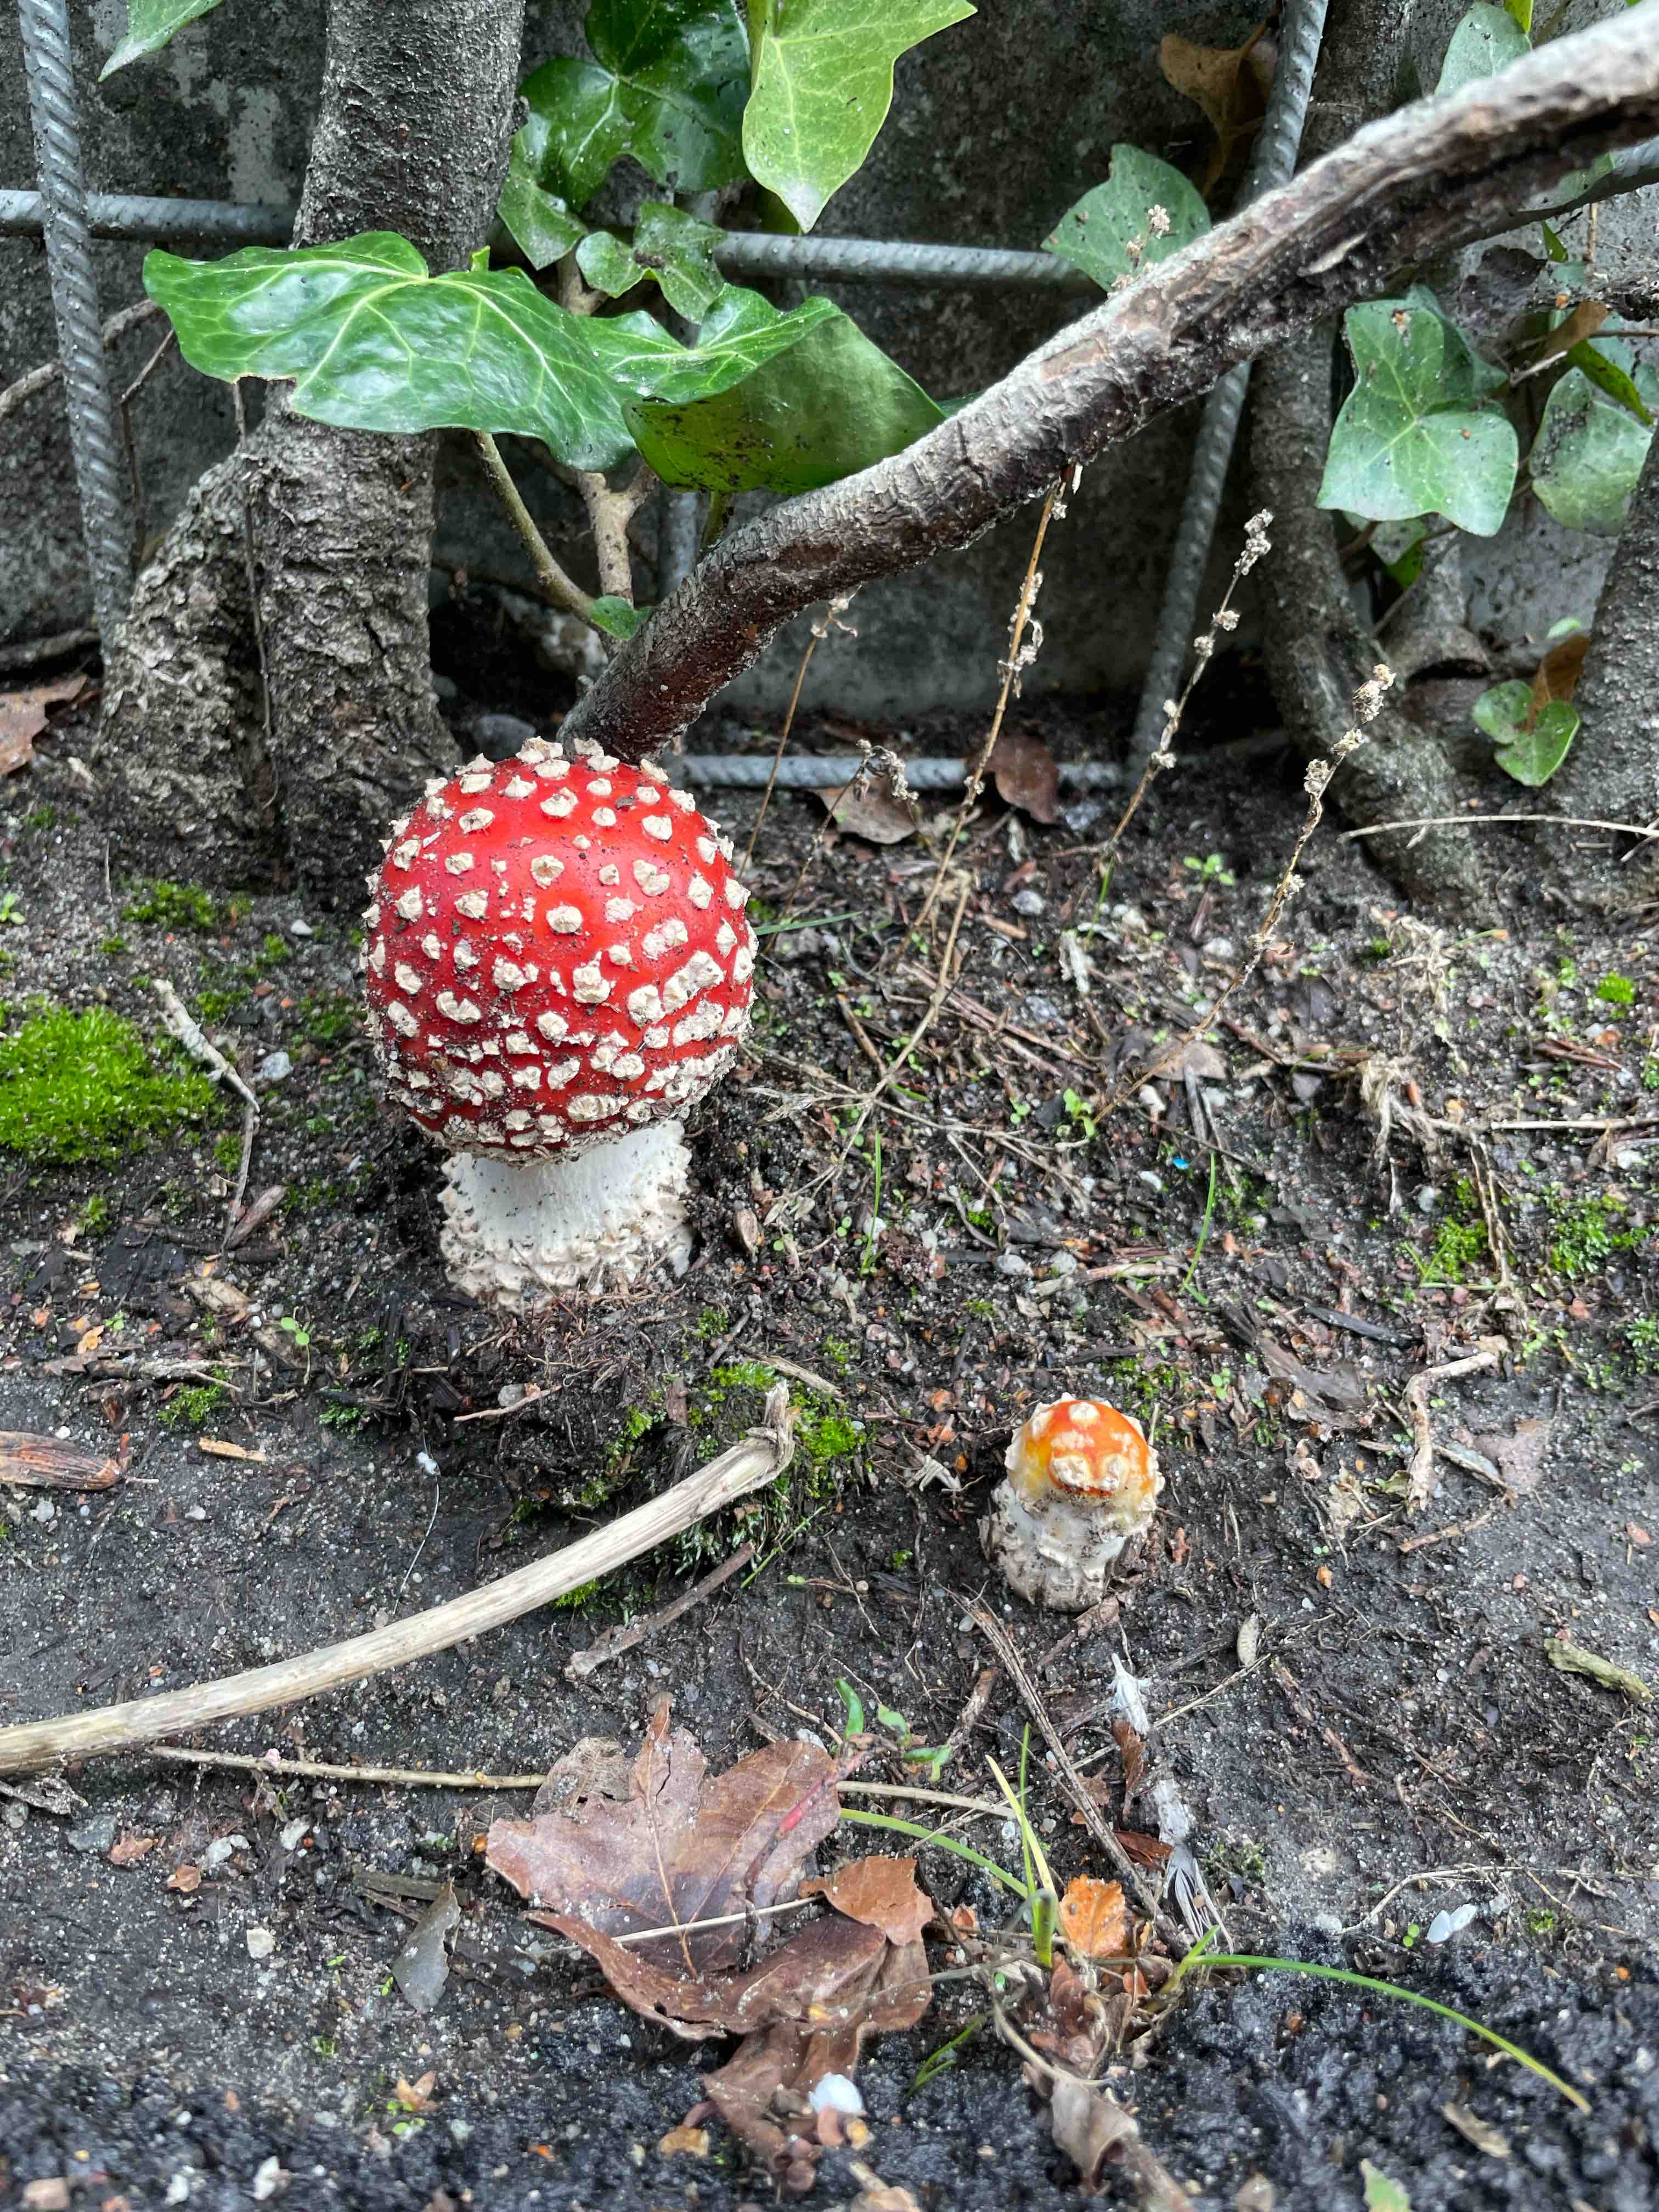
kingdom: Fungi
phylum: Basidiomycota
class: Agaricomycetes
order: Agaricales
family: Amanitaceae
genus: Amanita
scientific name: Amanita muscaria
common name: rød fluesvamp
